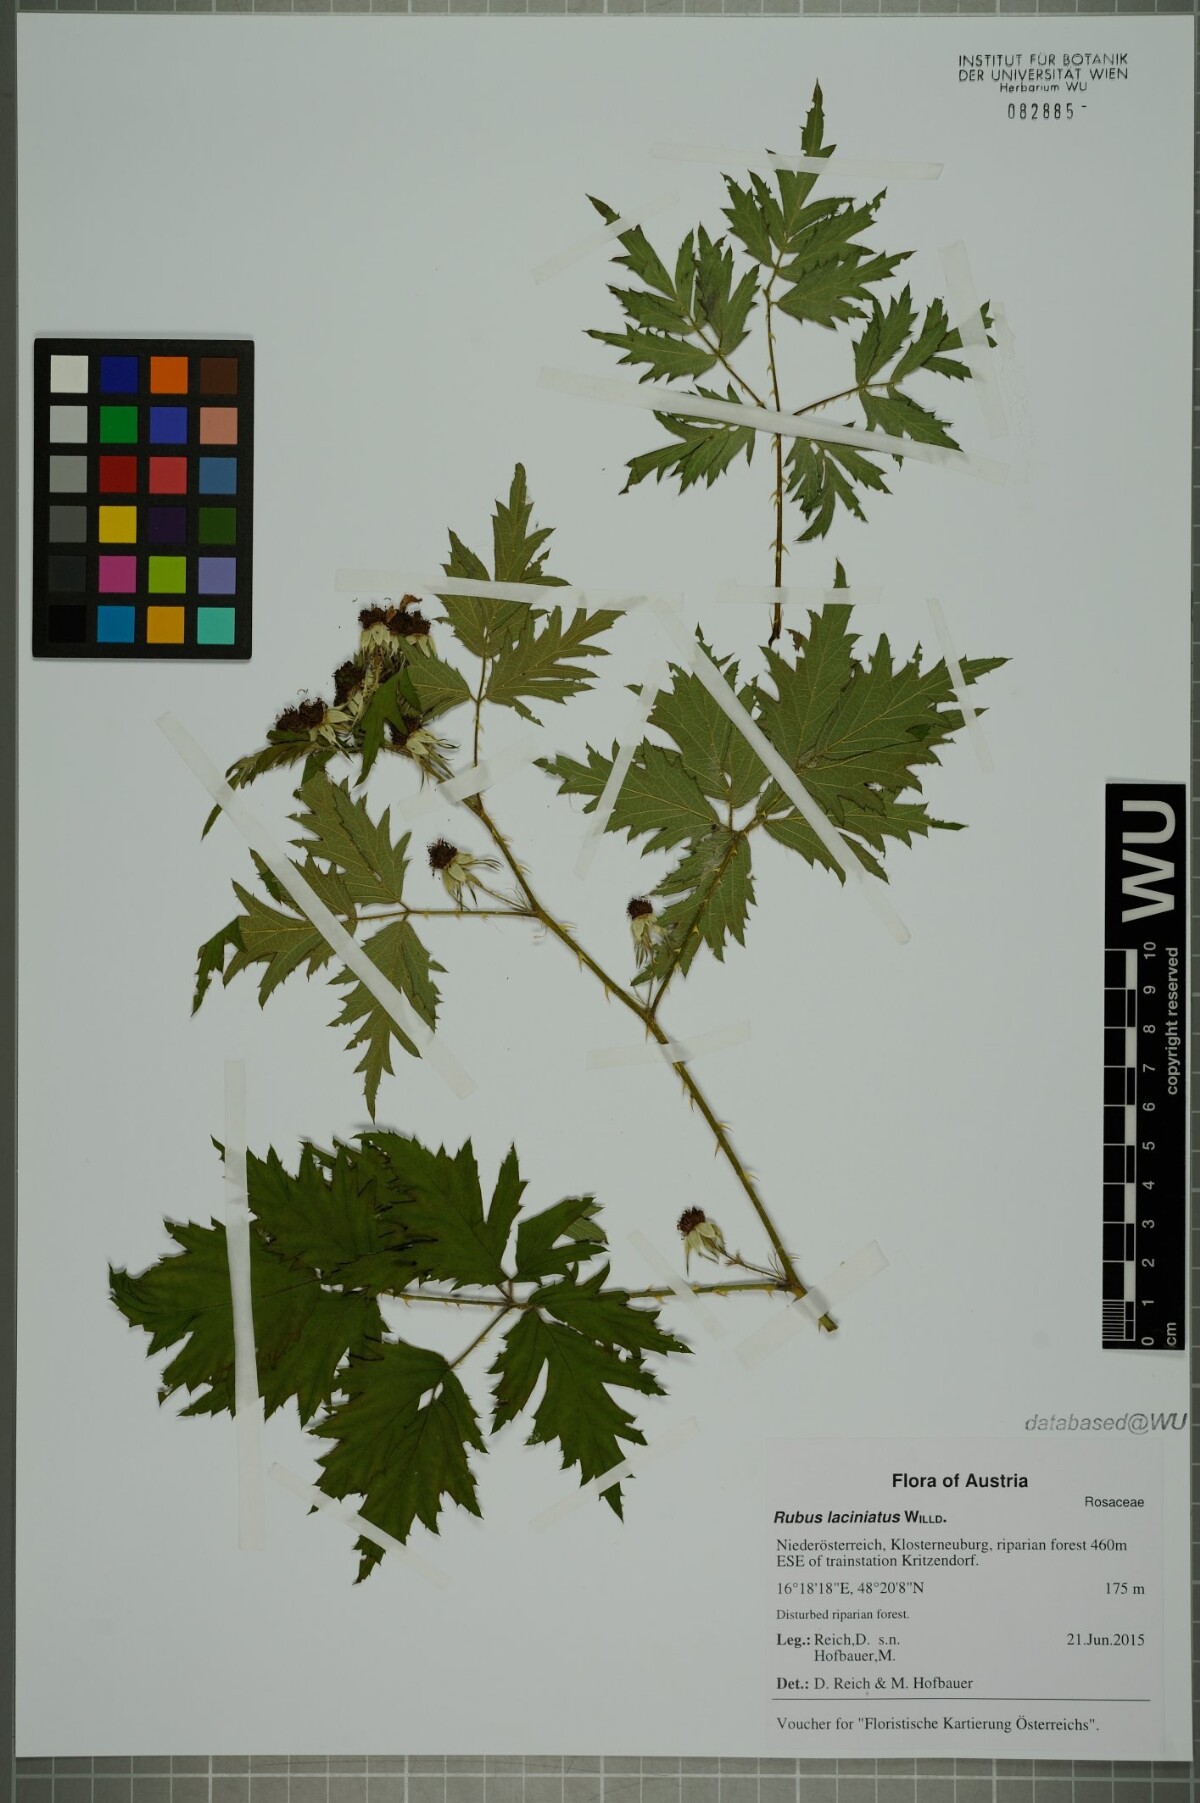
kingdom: Plantae
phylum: Tracheophyta
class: Magnoliopsida
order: Rosales
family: Rosaceae
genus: Rubus
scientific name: Rubus laciniatus
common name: Evergreen blackberry
